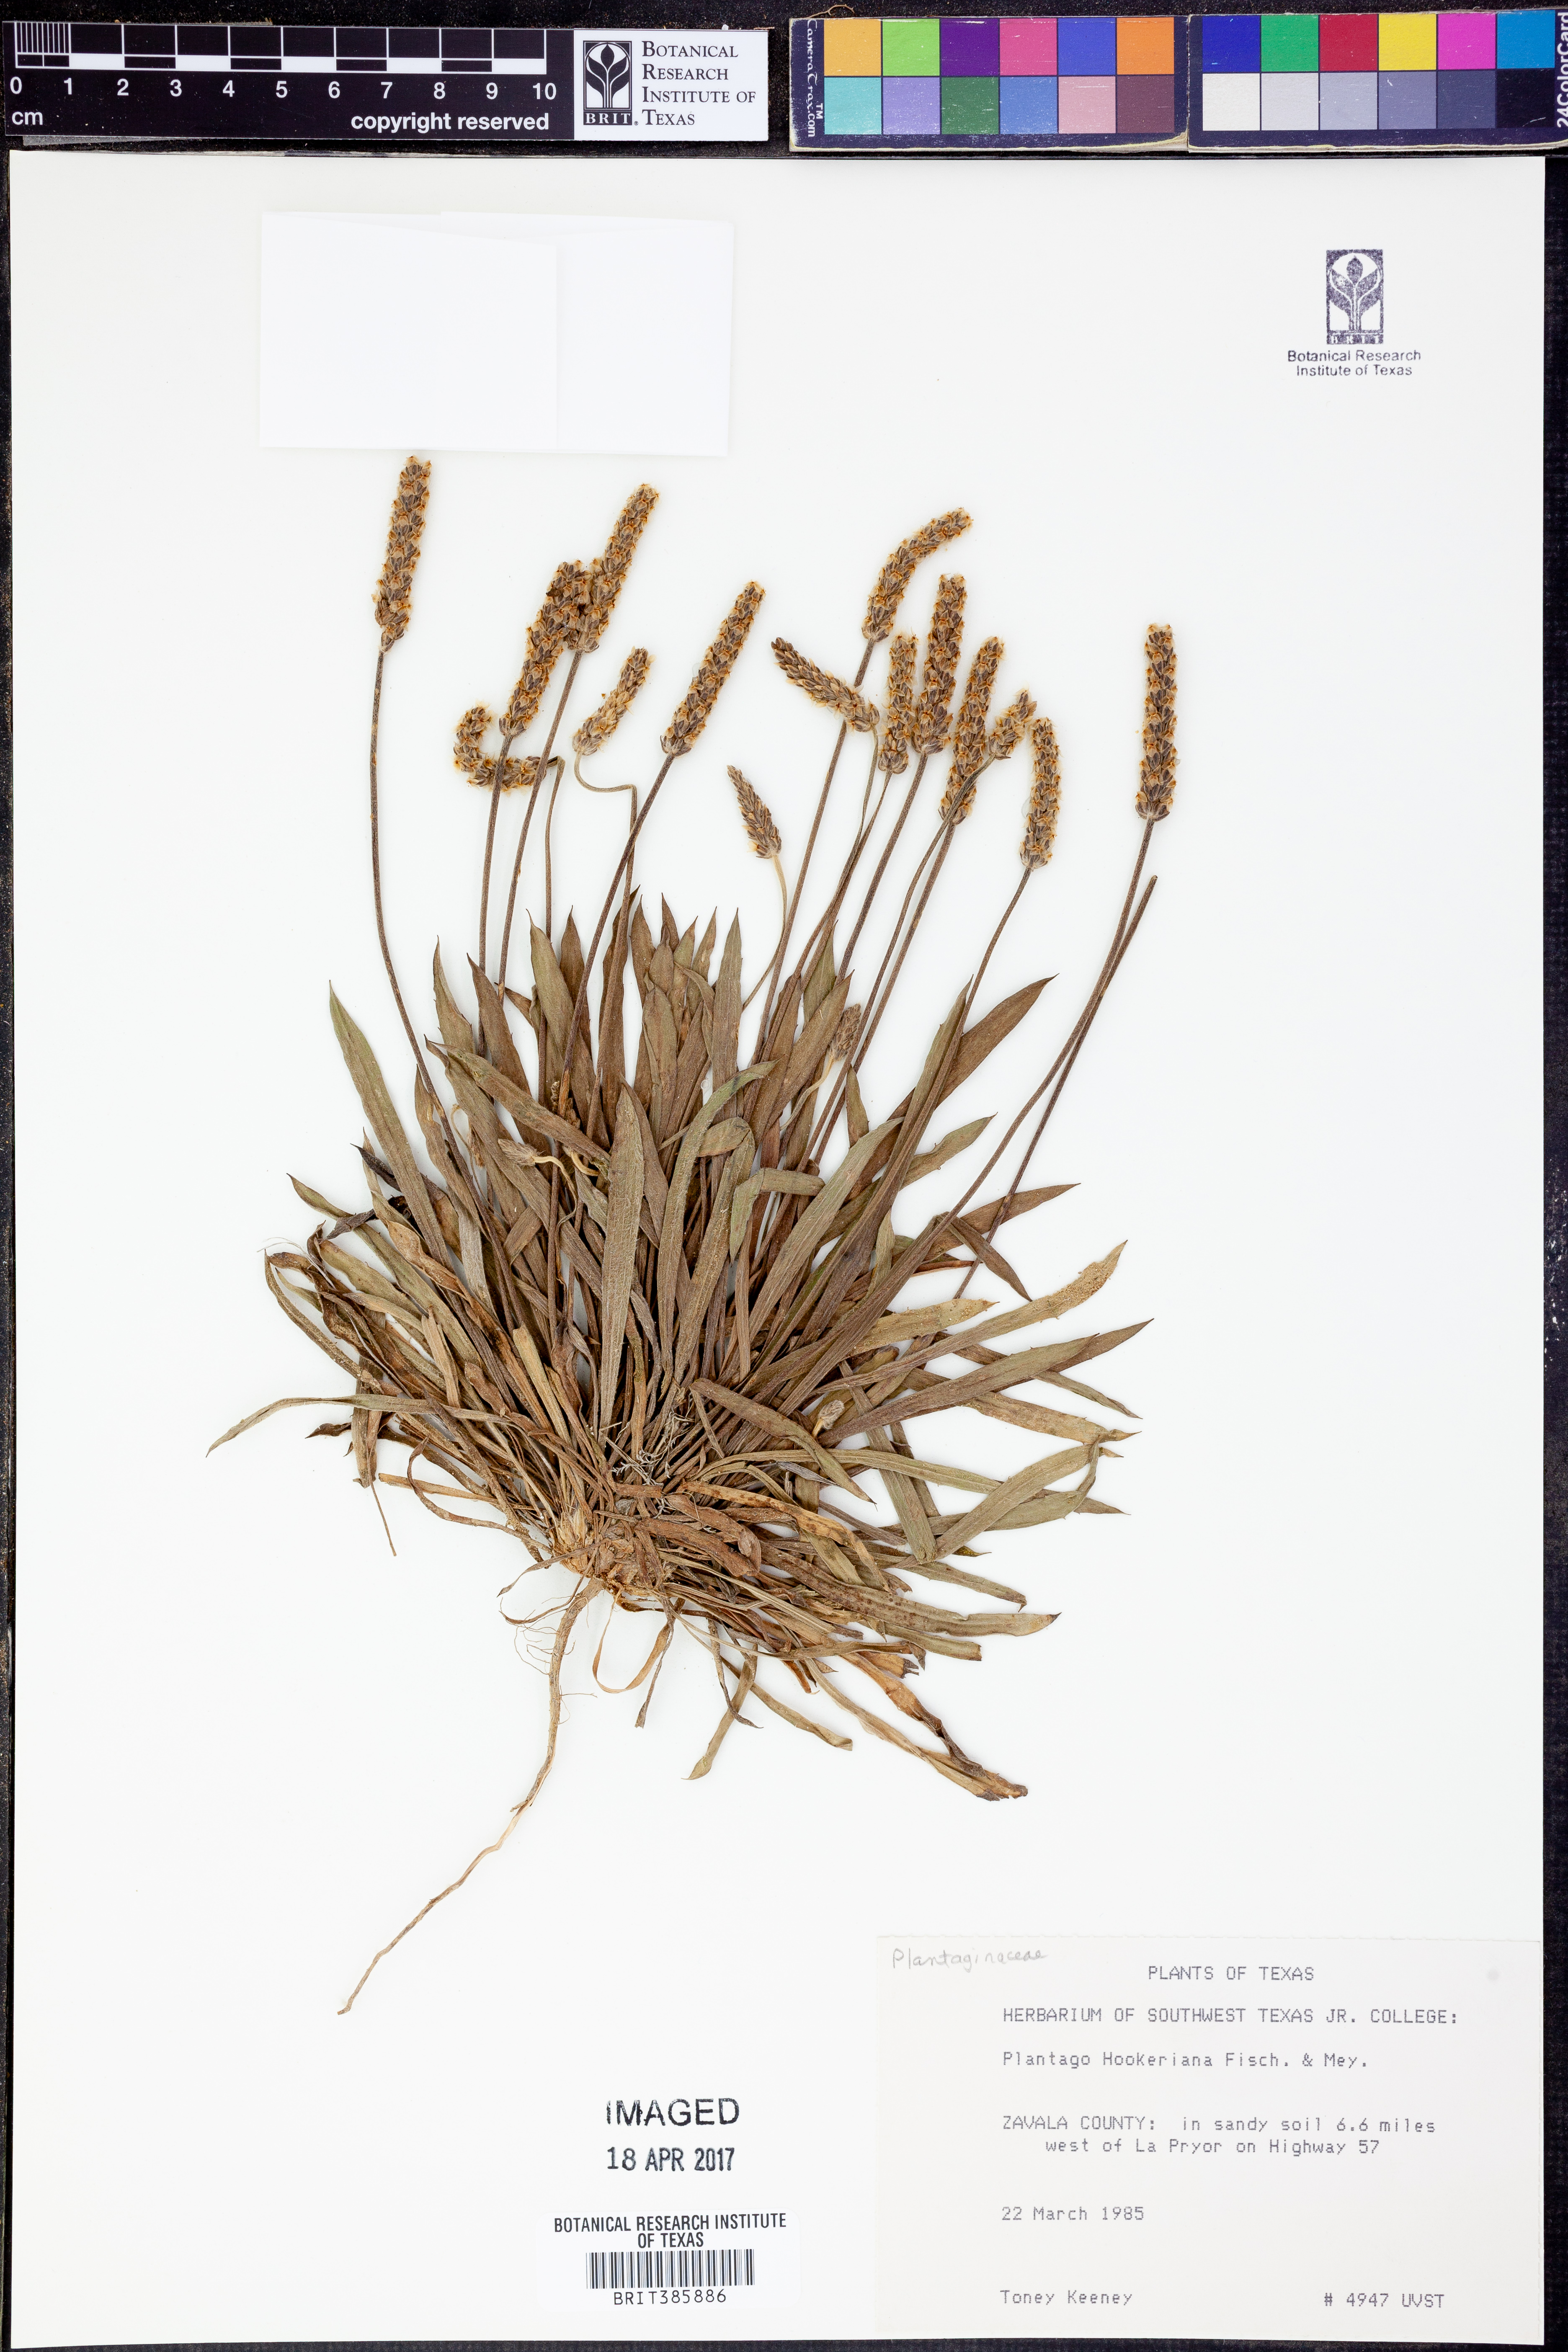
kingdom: Plantae
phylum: Tracheophyta
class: Magnoliopsida
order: Lamiales
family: Plantaginaceae
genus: Plantago
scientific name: Plantago hookeriana
